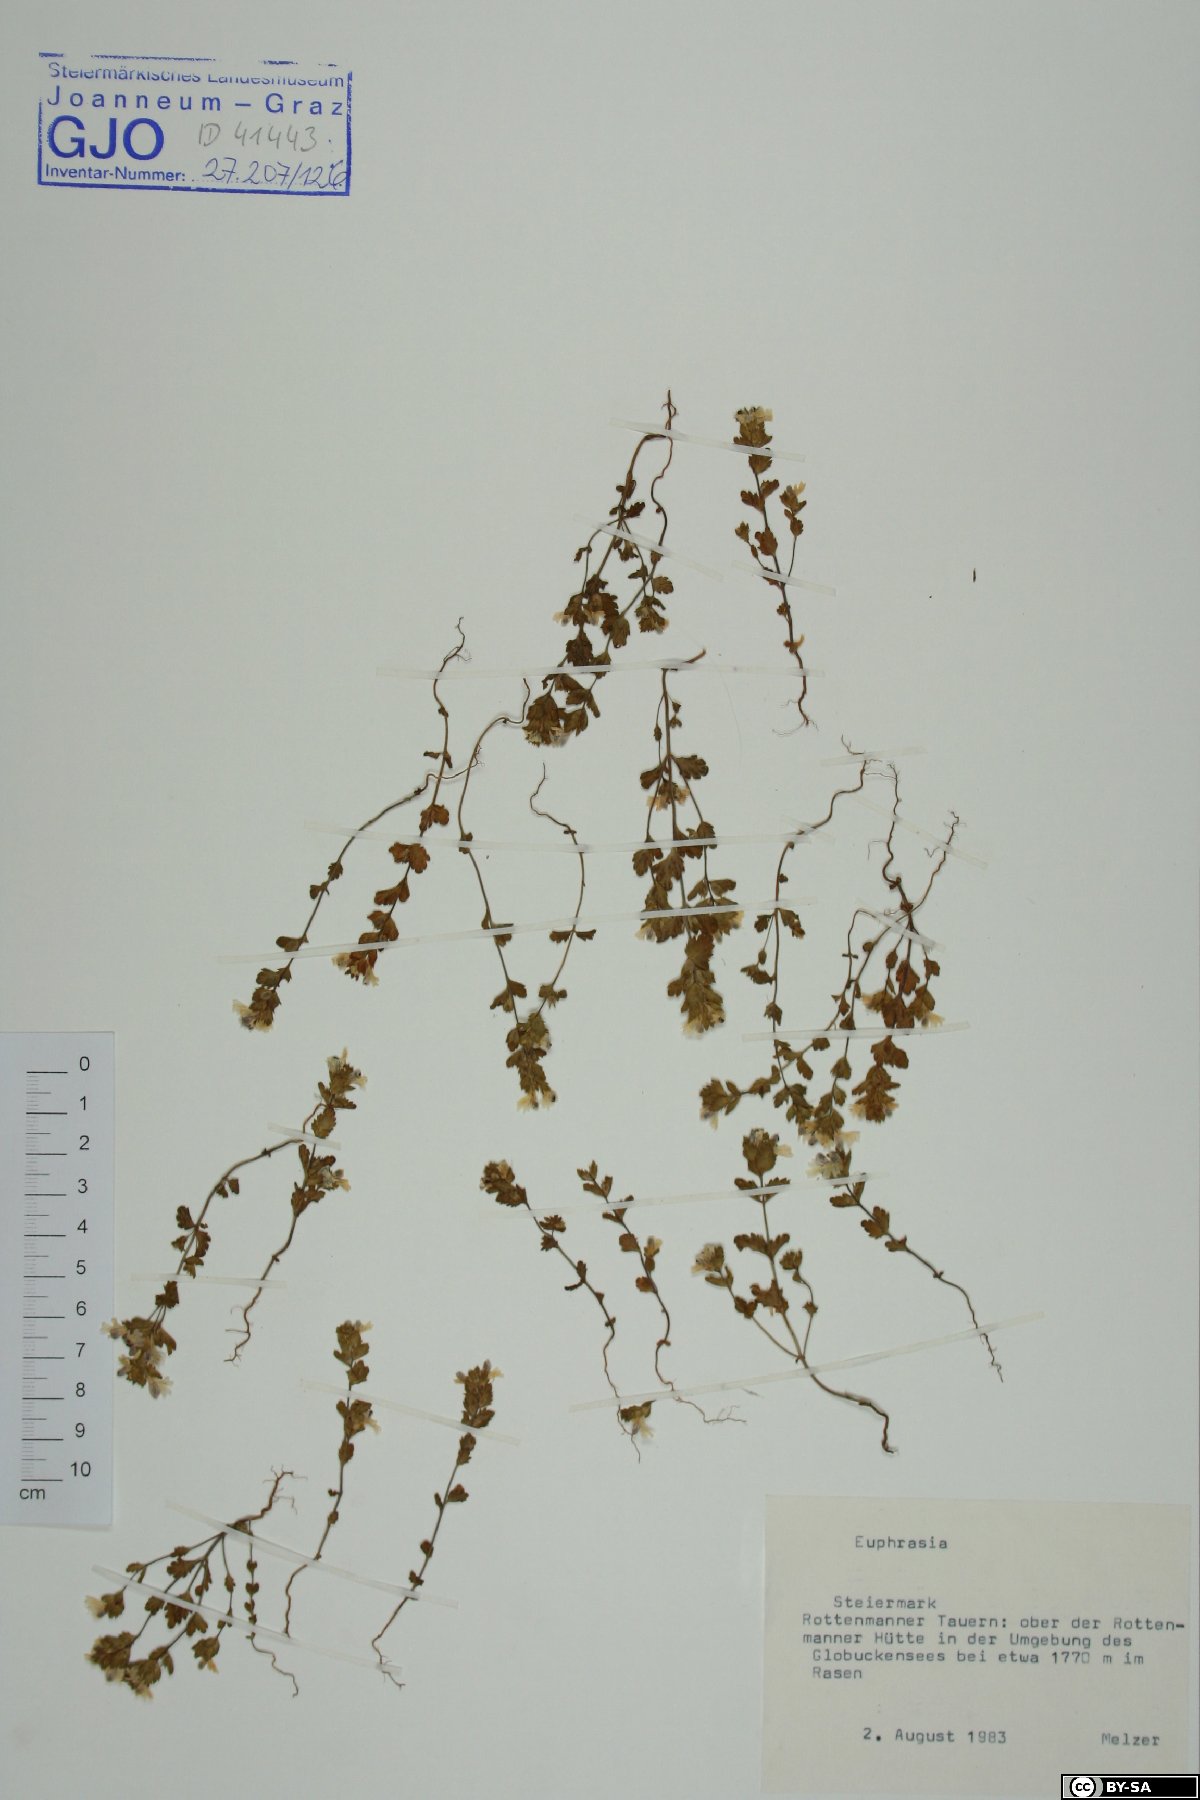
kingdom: Plantae
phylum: Tracheophyta
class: Magnoliopsida
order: Lamiales
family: Orobanchaceae
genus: Euphrasia
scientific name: Euphrasia
